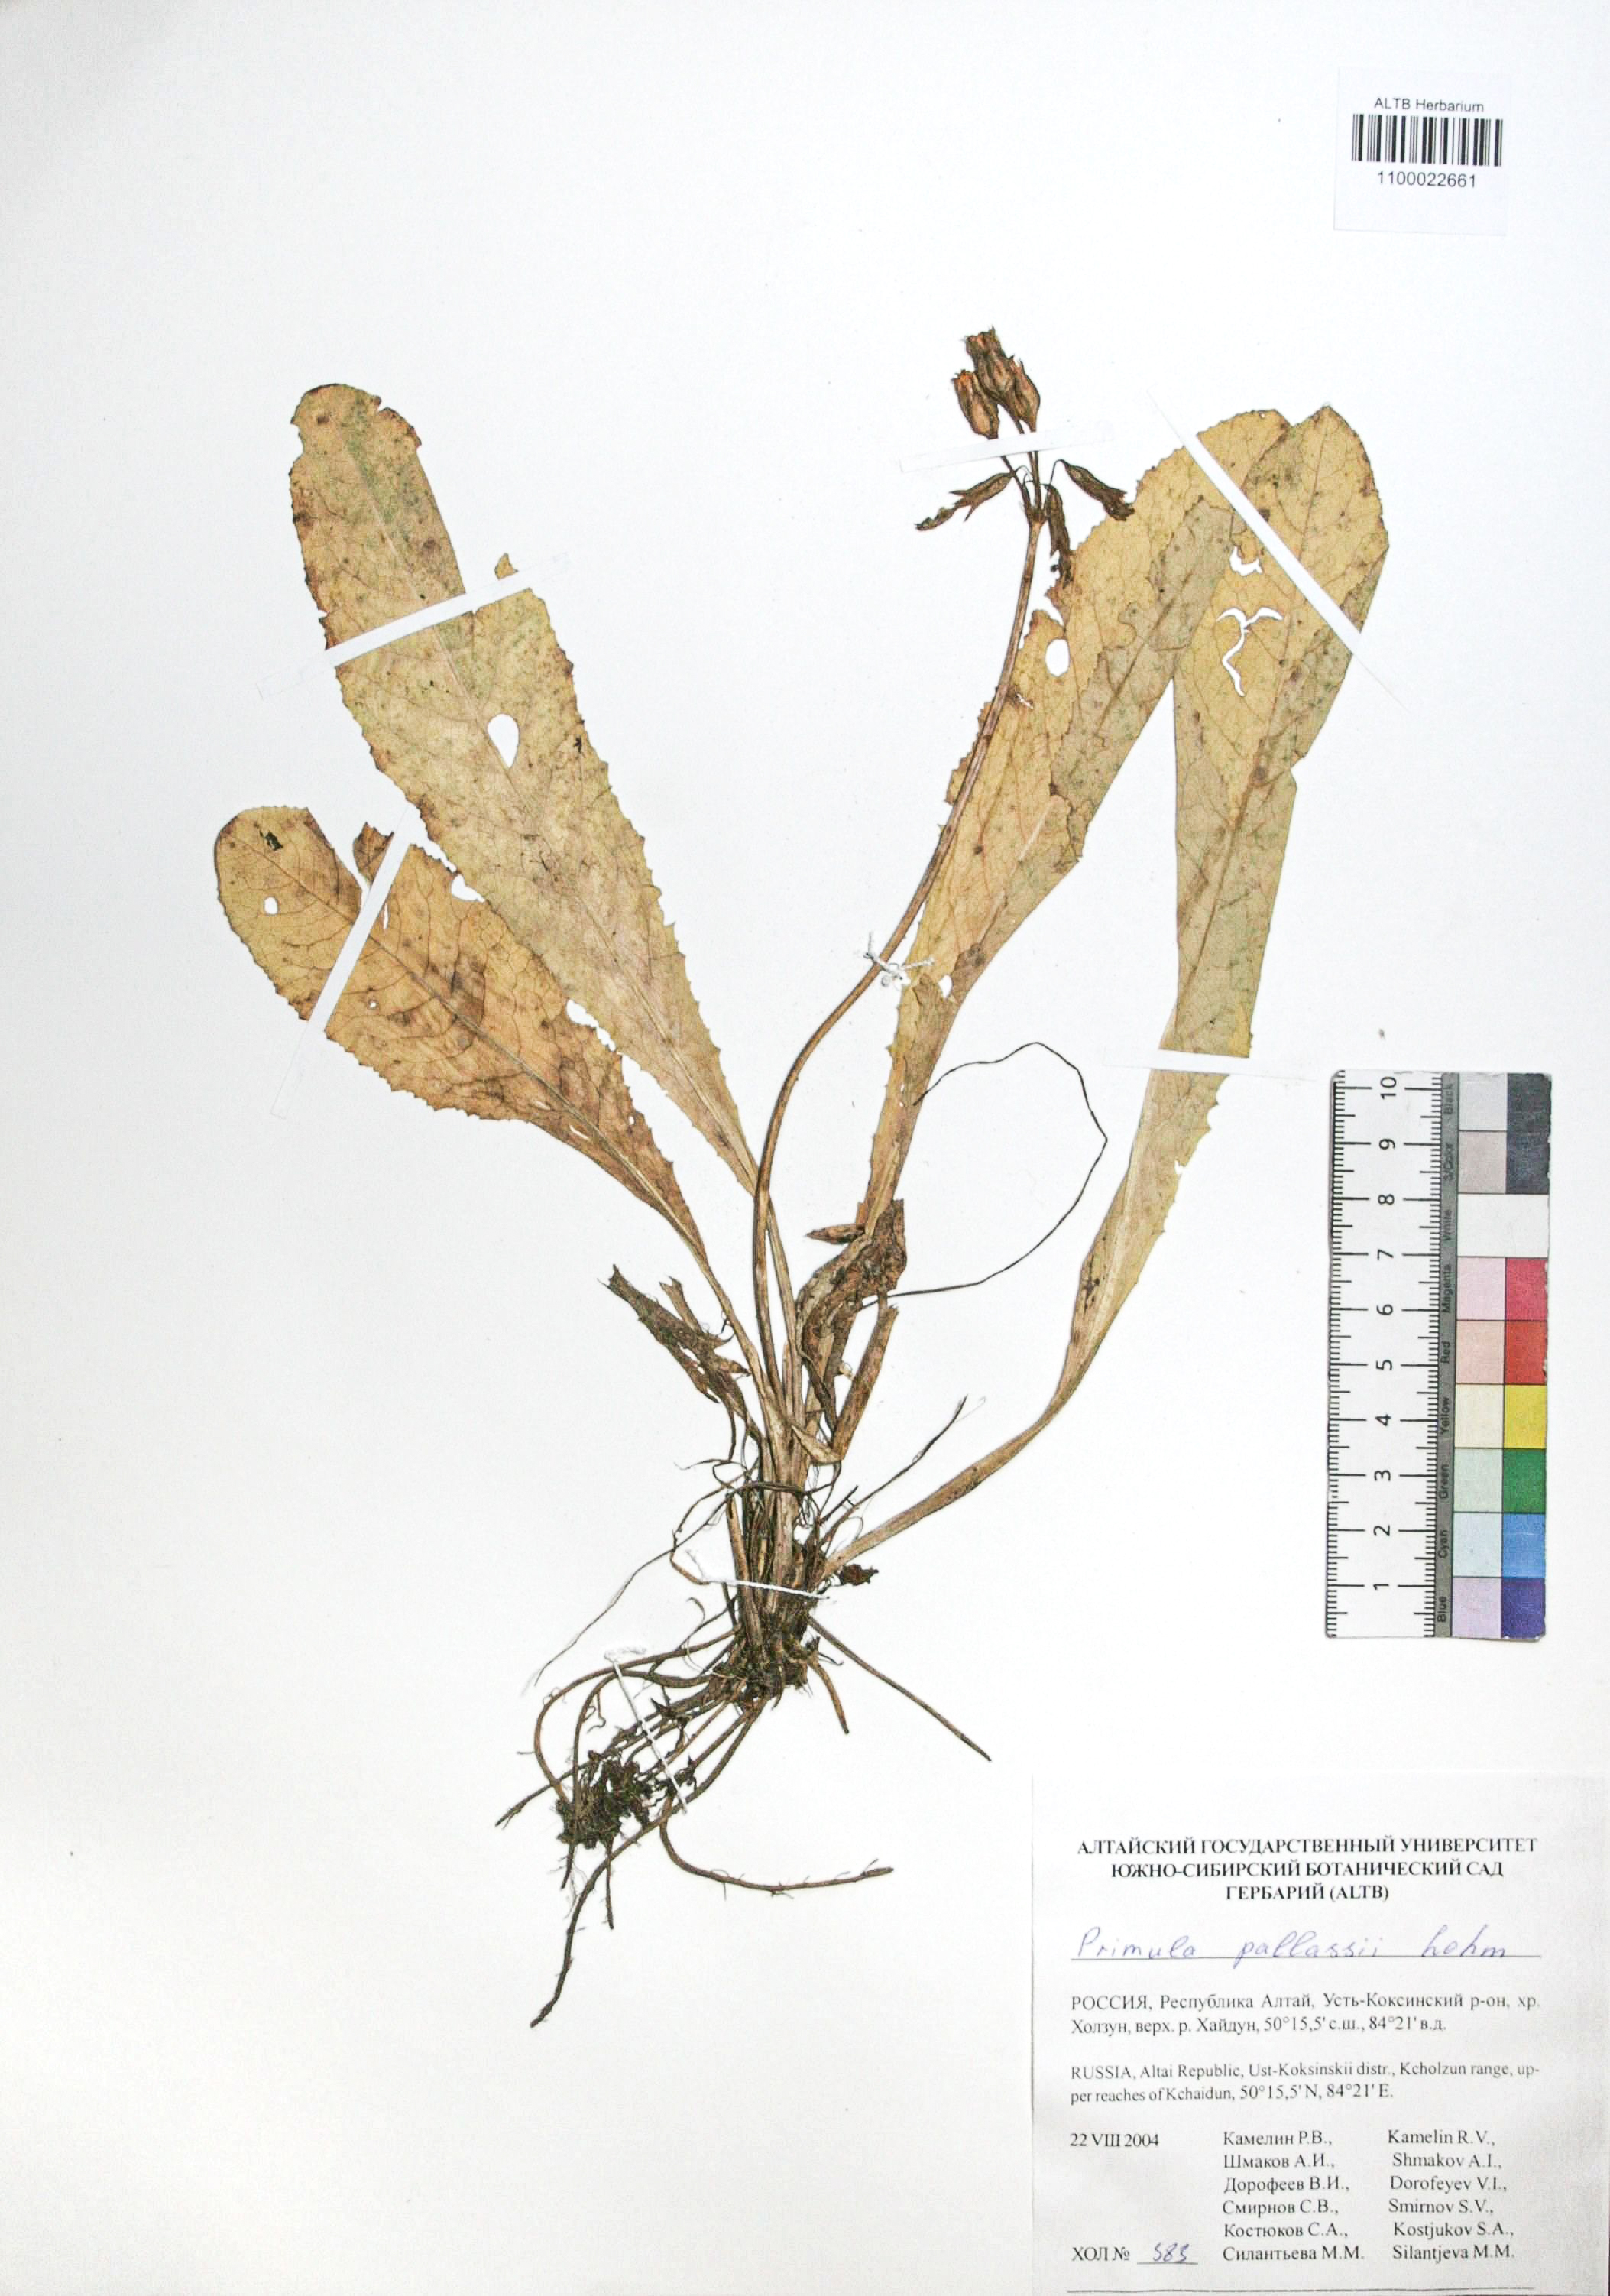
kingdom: Plantae
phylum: Tracheophyta
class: Magnoliopsida
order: Ericales
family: Primulaceae
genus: Primula
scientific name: Primula elatior
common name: Oxlip
